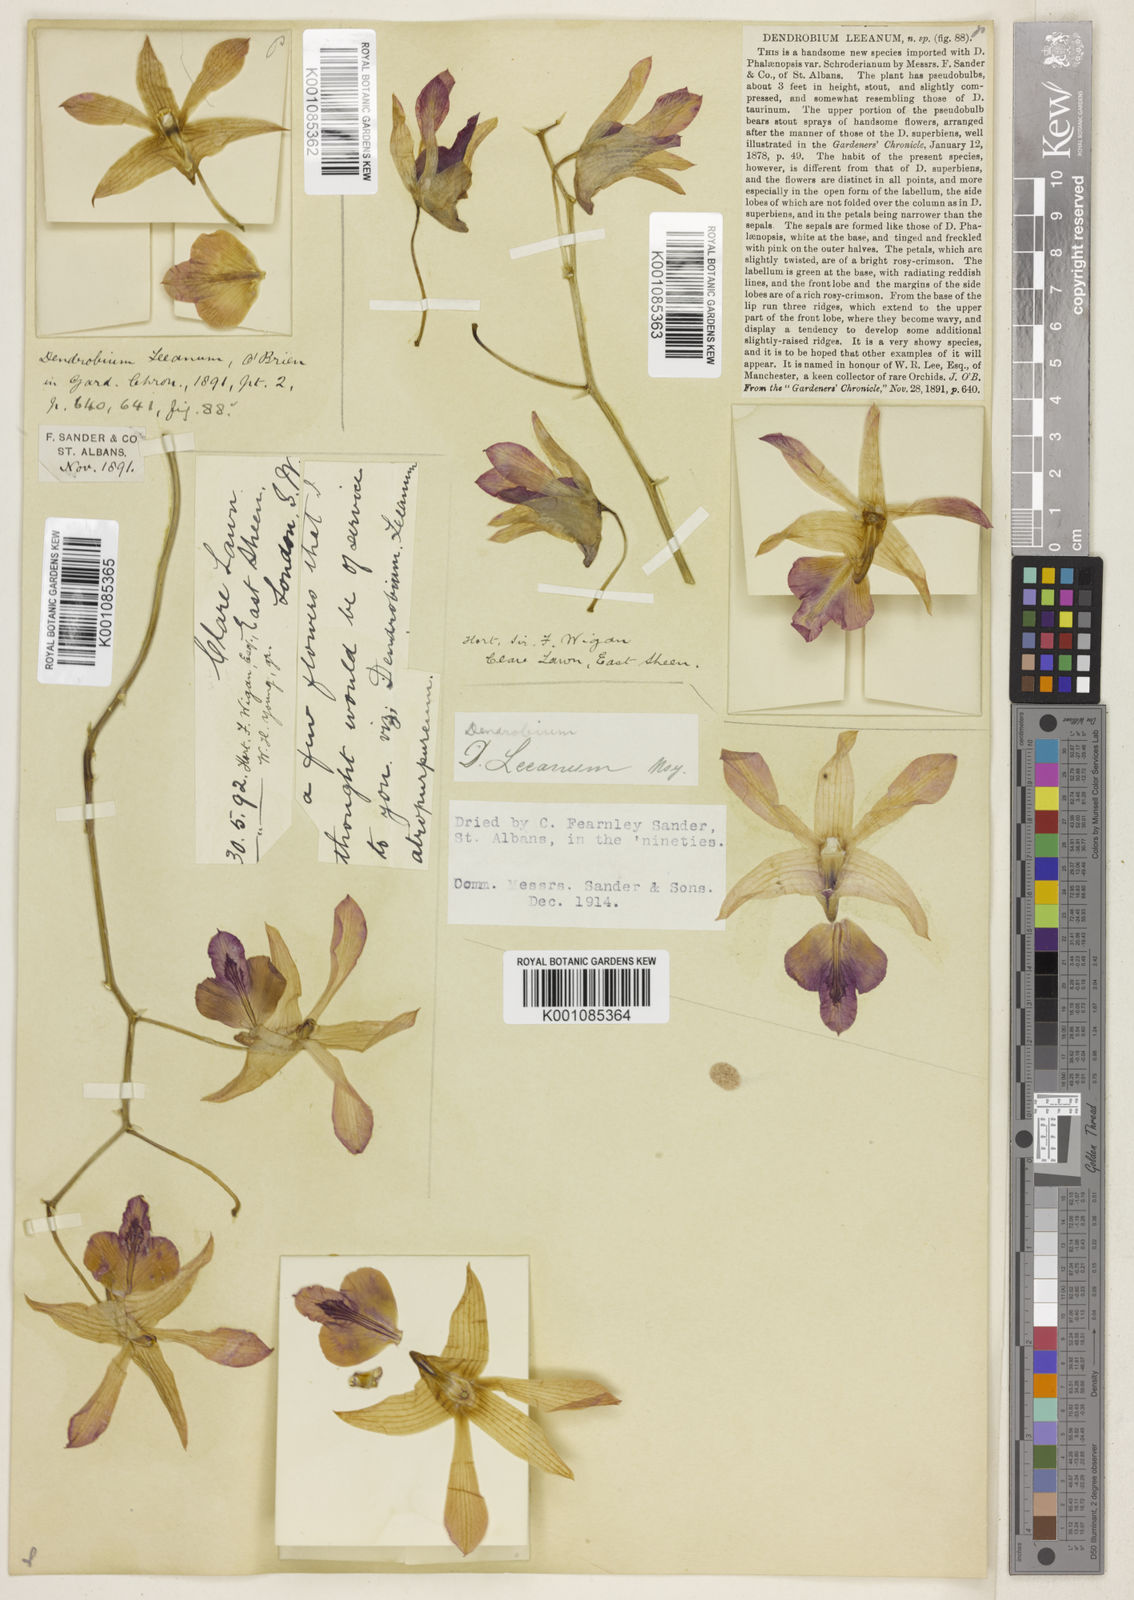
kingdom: Plantae
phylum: Tracheophyta
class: Liliopsida
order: Asparagales
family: Orchidaceae
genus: Dendrobium
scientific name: Dendrobium leeanum
